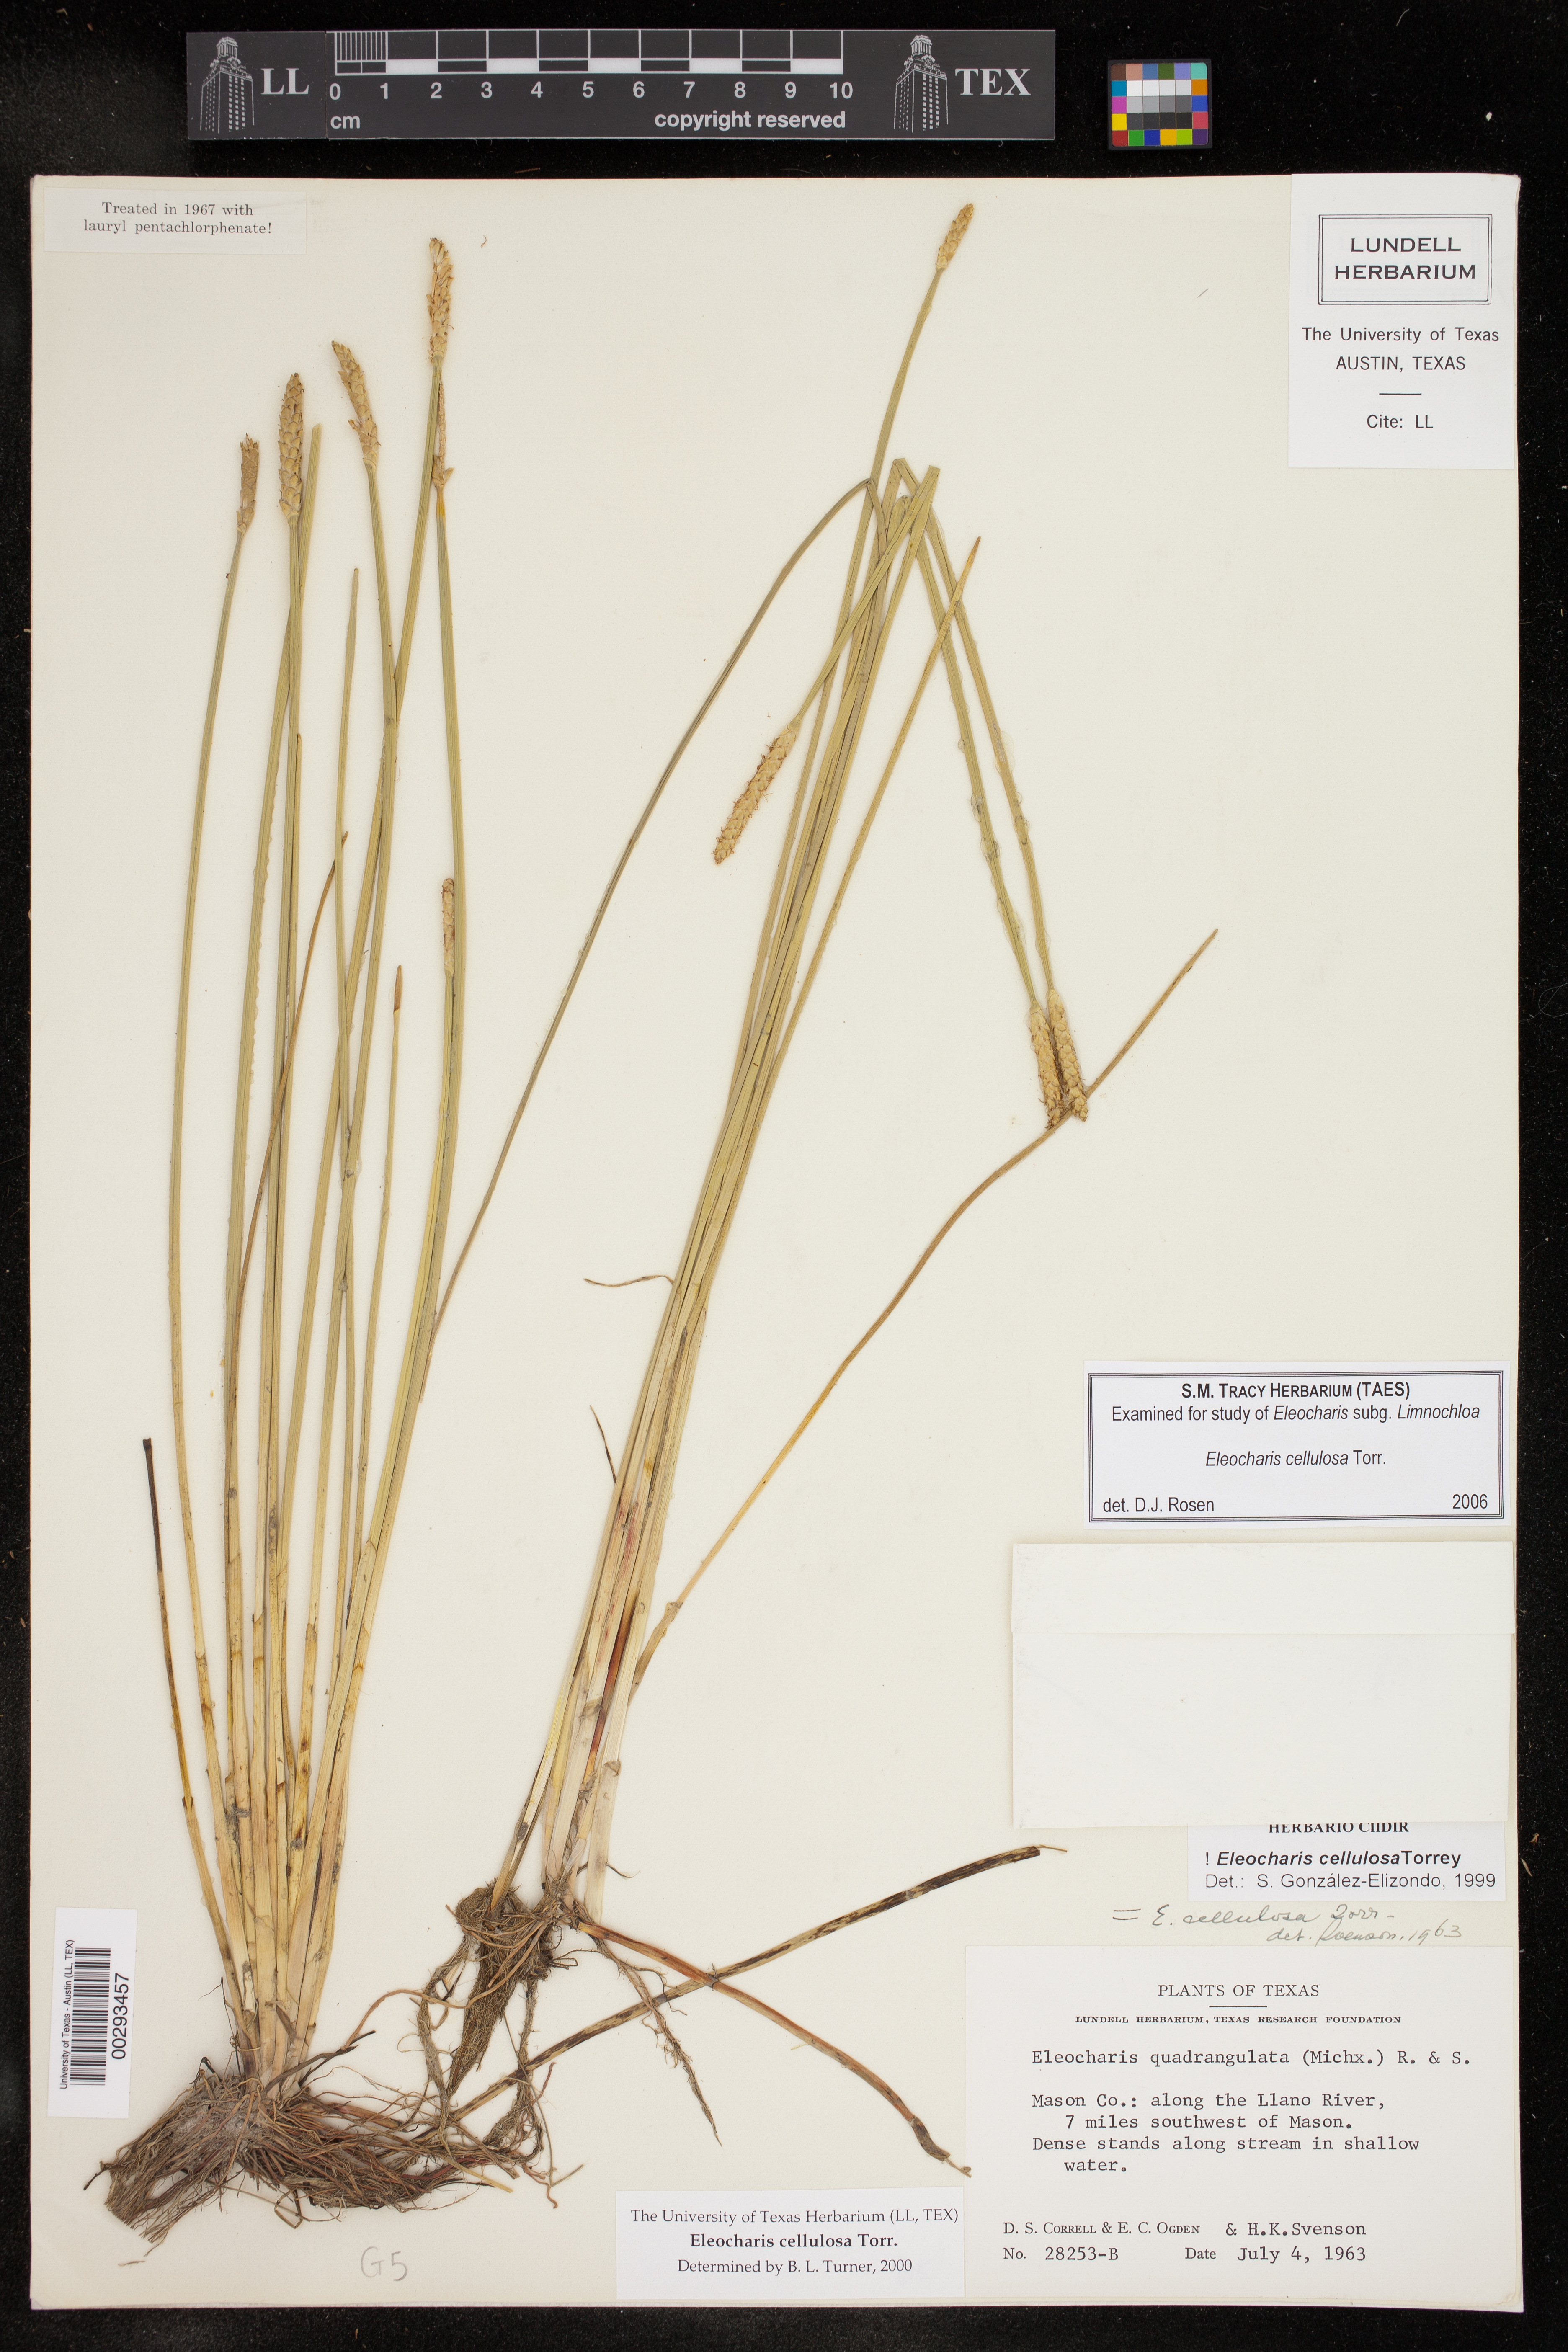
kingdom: Plantae
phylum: Tracheophyta
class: Liliopsida
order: Poales
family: Cyperaceae
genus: Eleocharis
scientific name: Eleocharis cellulosa
